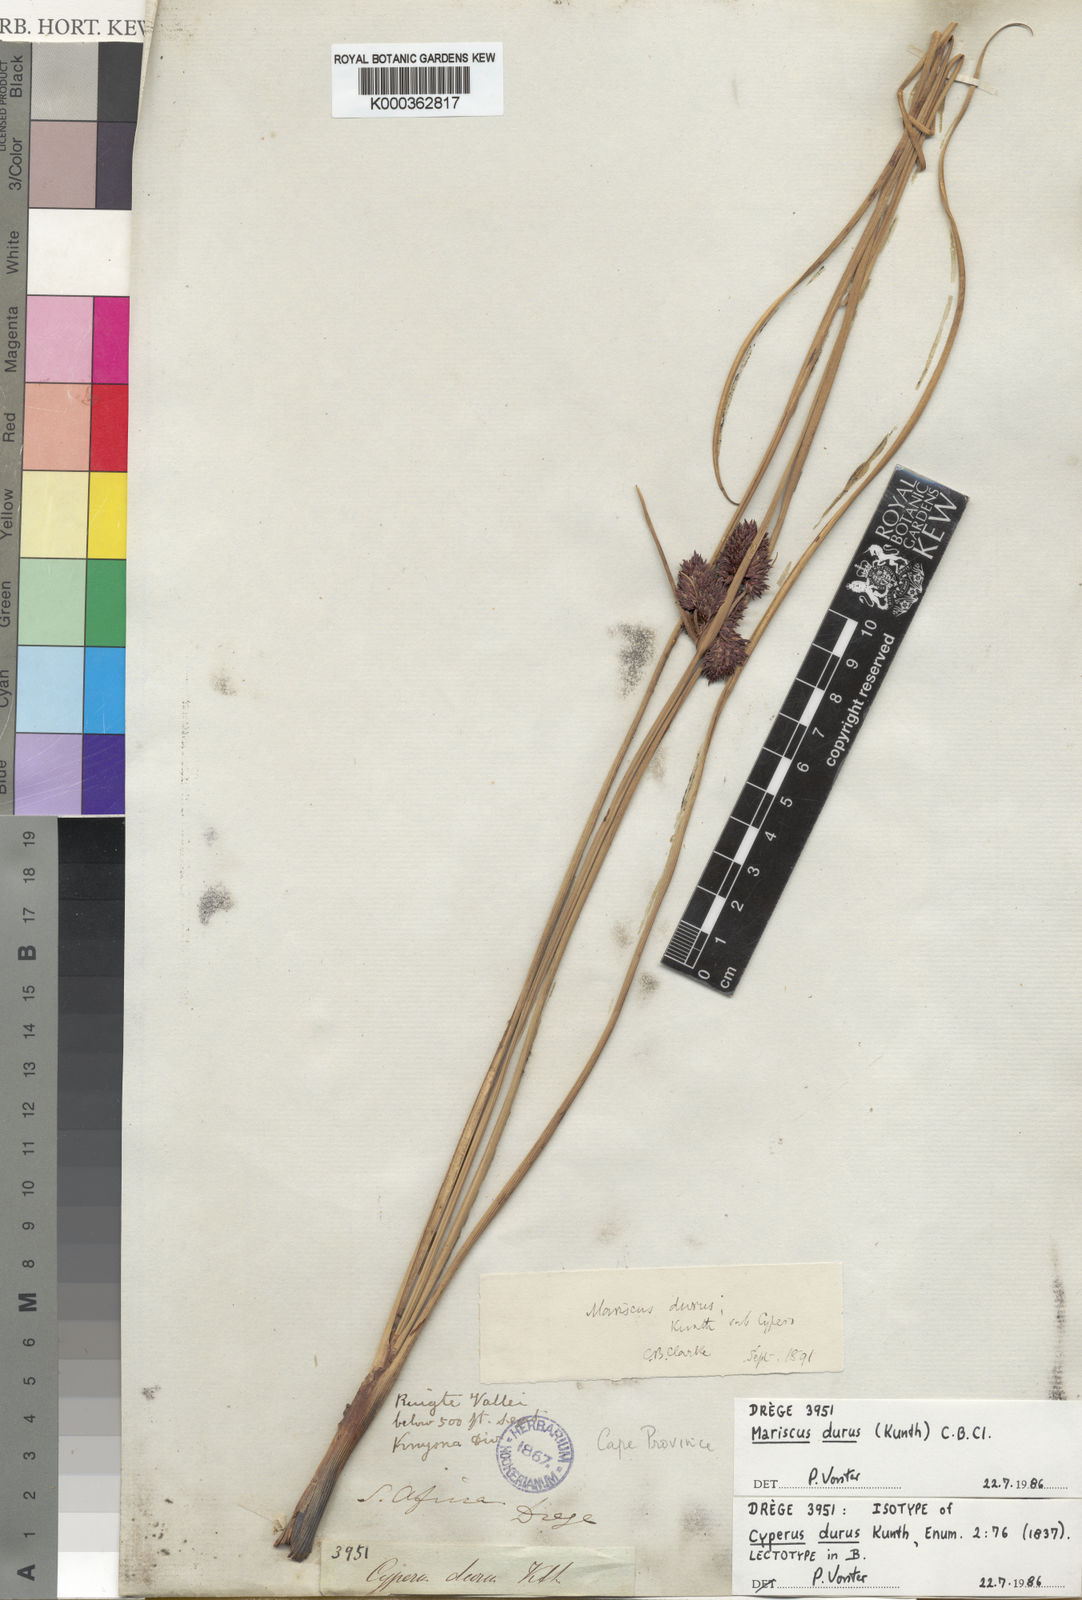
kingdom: Plantae
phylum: Tracheophyta
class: Liliopsida
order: Poales
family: Cyperaceae
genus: Cyperus
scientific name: Cyperus durus
